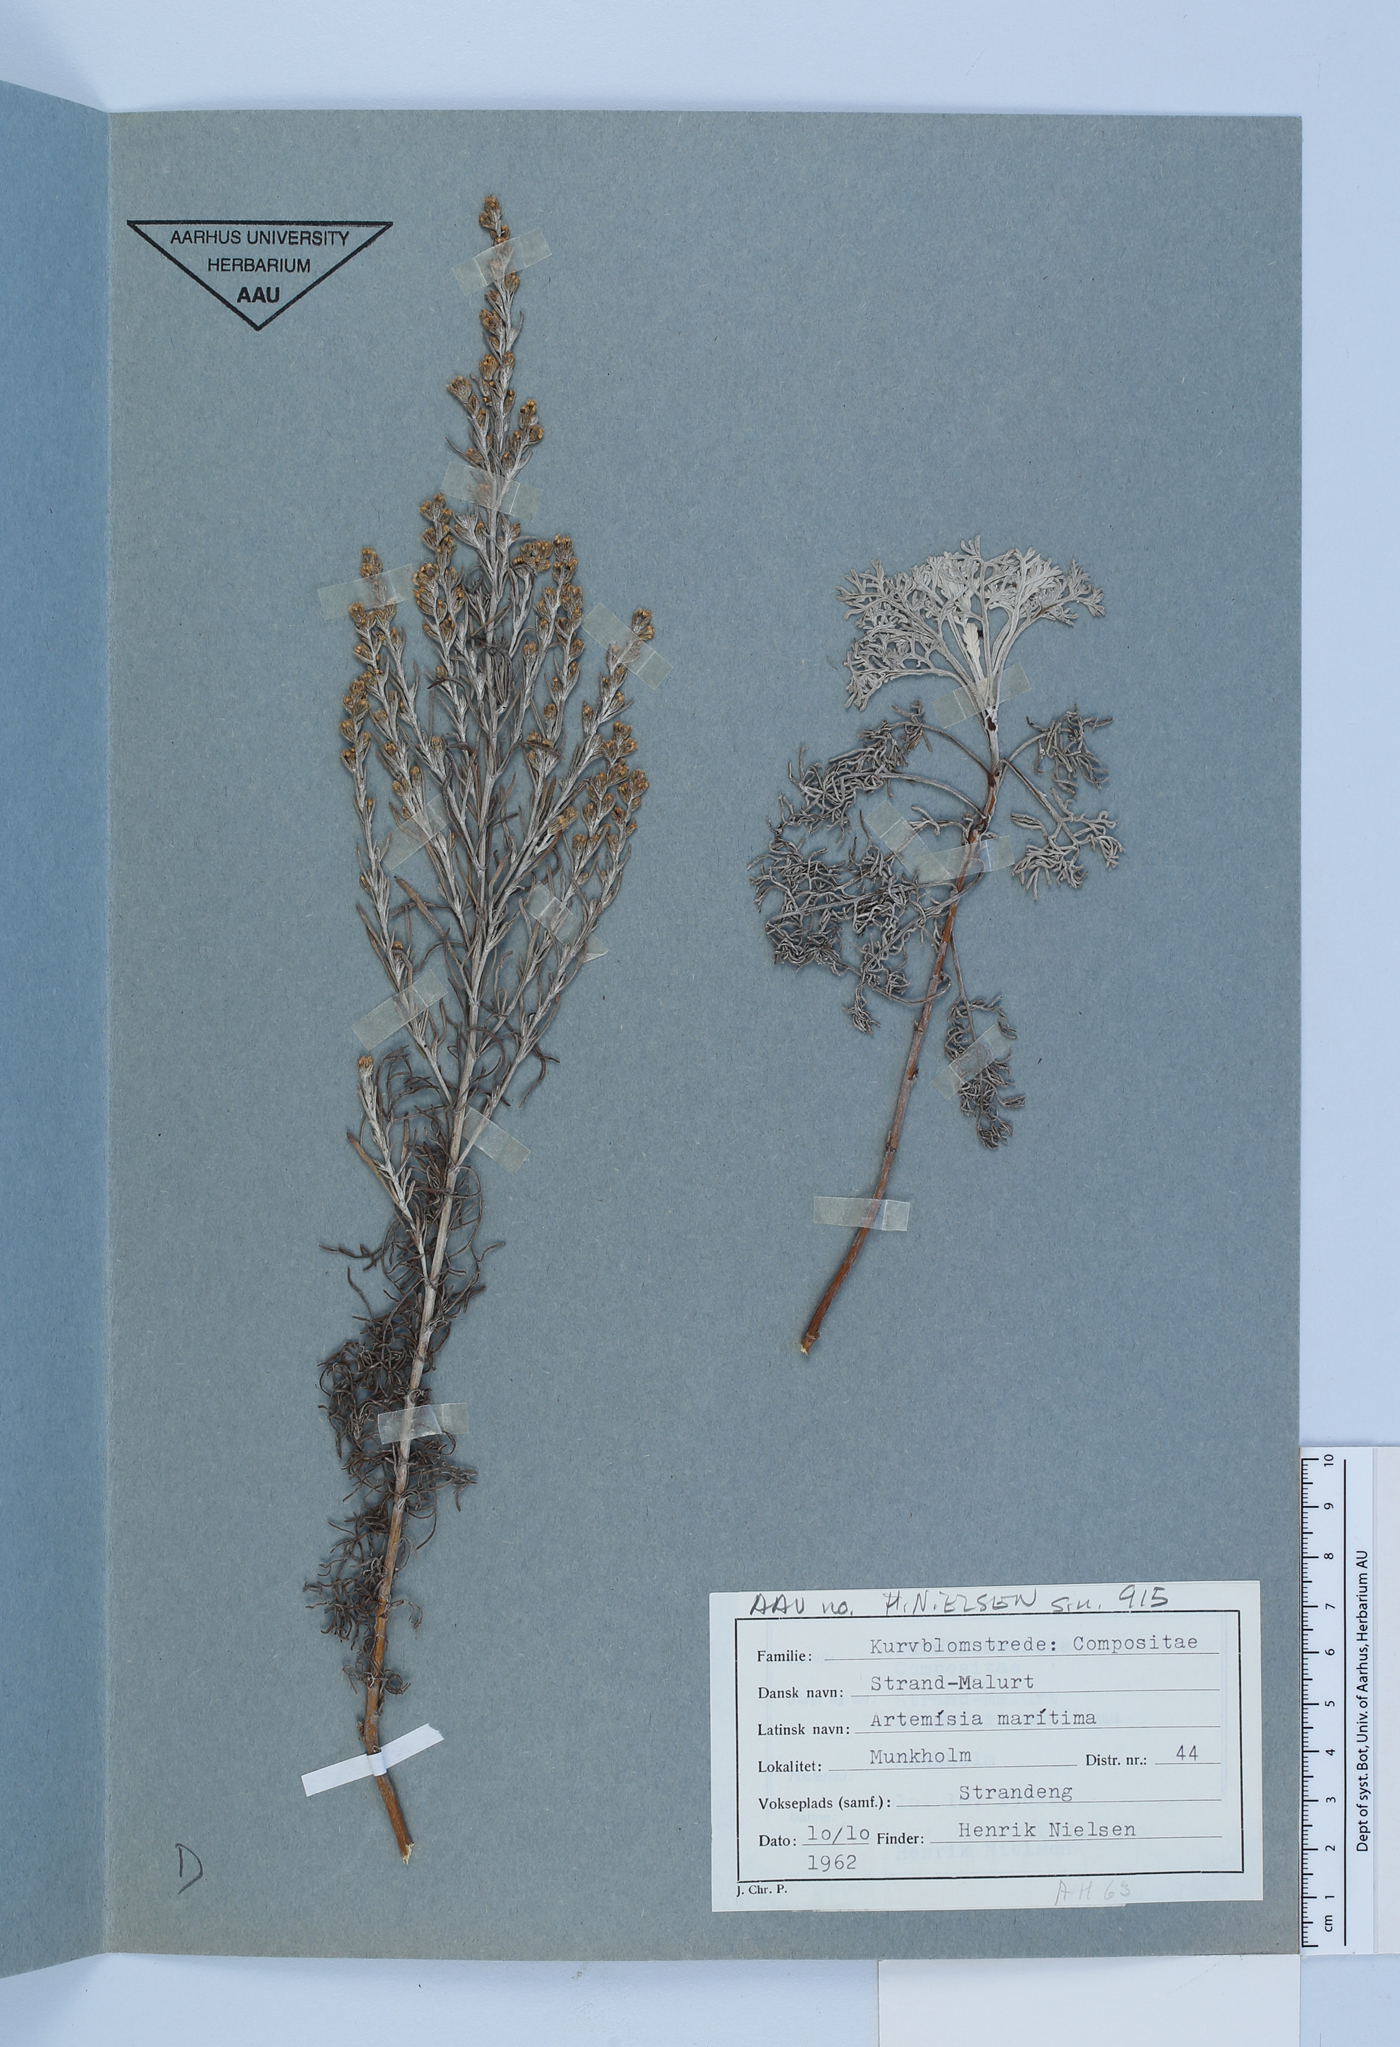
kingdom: Plantae
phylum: Tracheophyta
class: Magnoliopsida
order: Asterales
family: Asteraceae
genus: Artemisia
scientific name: Artemisia maritima
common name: Wormseed
